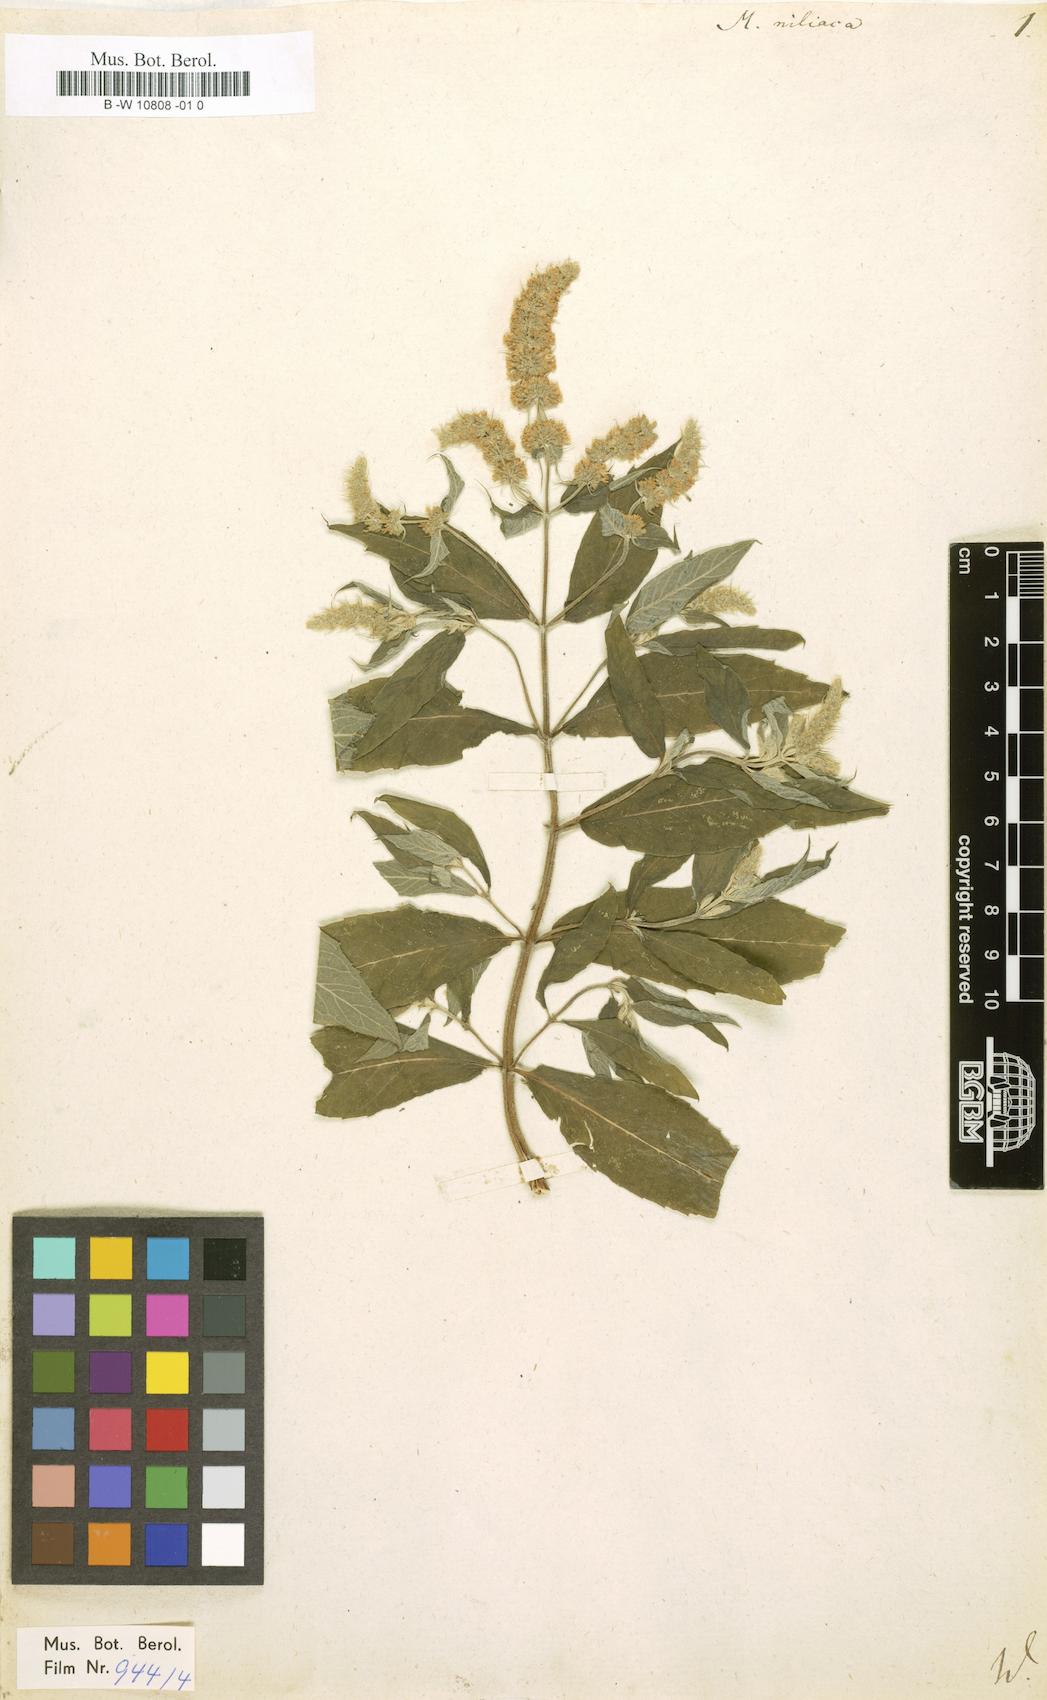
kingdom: Plantae
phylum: Tracheophyta
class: Magnoliopsida
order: Lamiales
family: Lamiaceae
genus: Mentha
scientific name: Mentha rotundifolia
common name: Bigleaf mint
